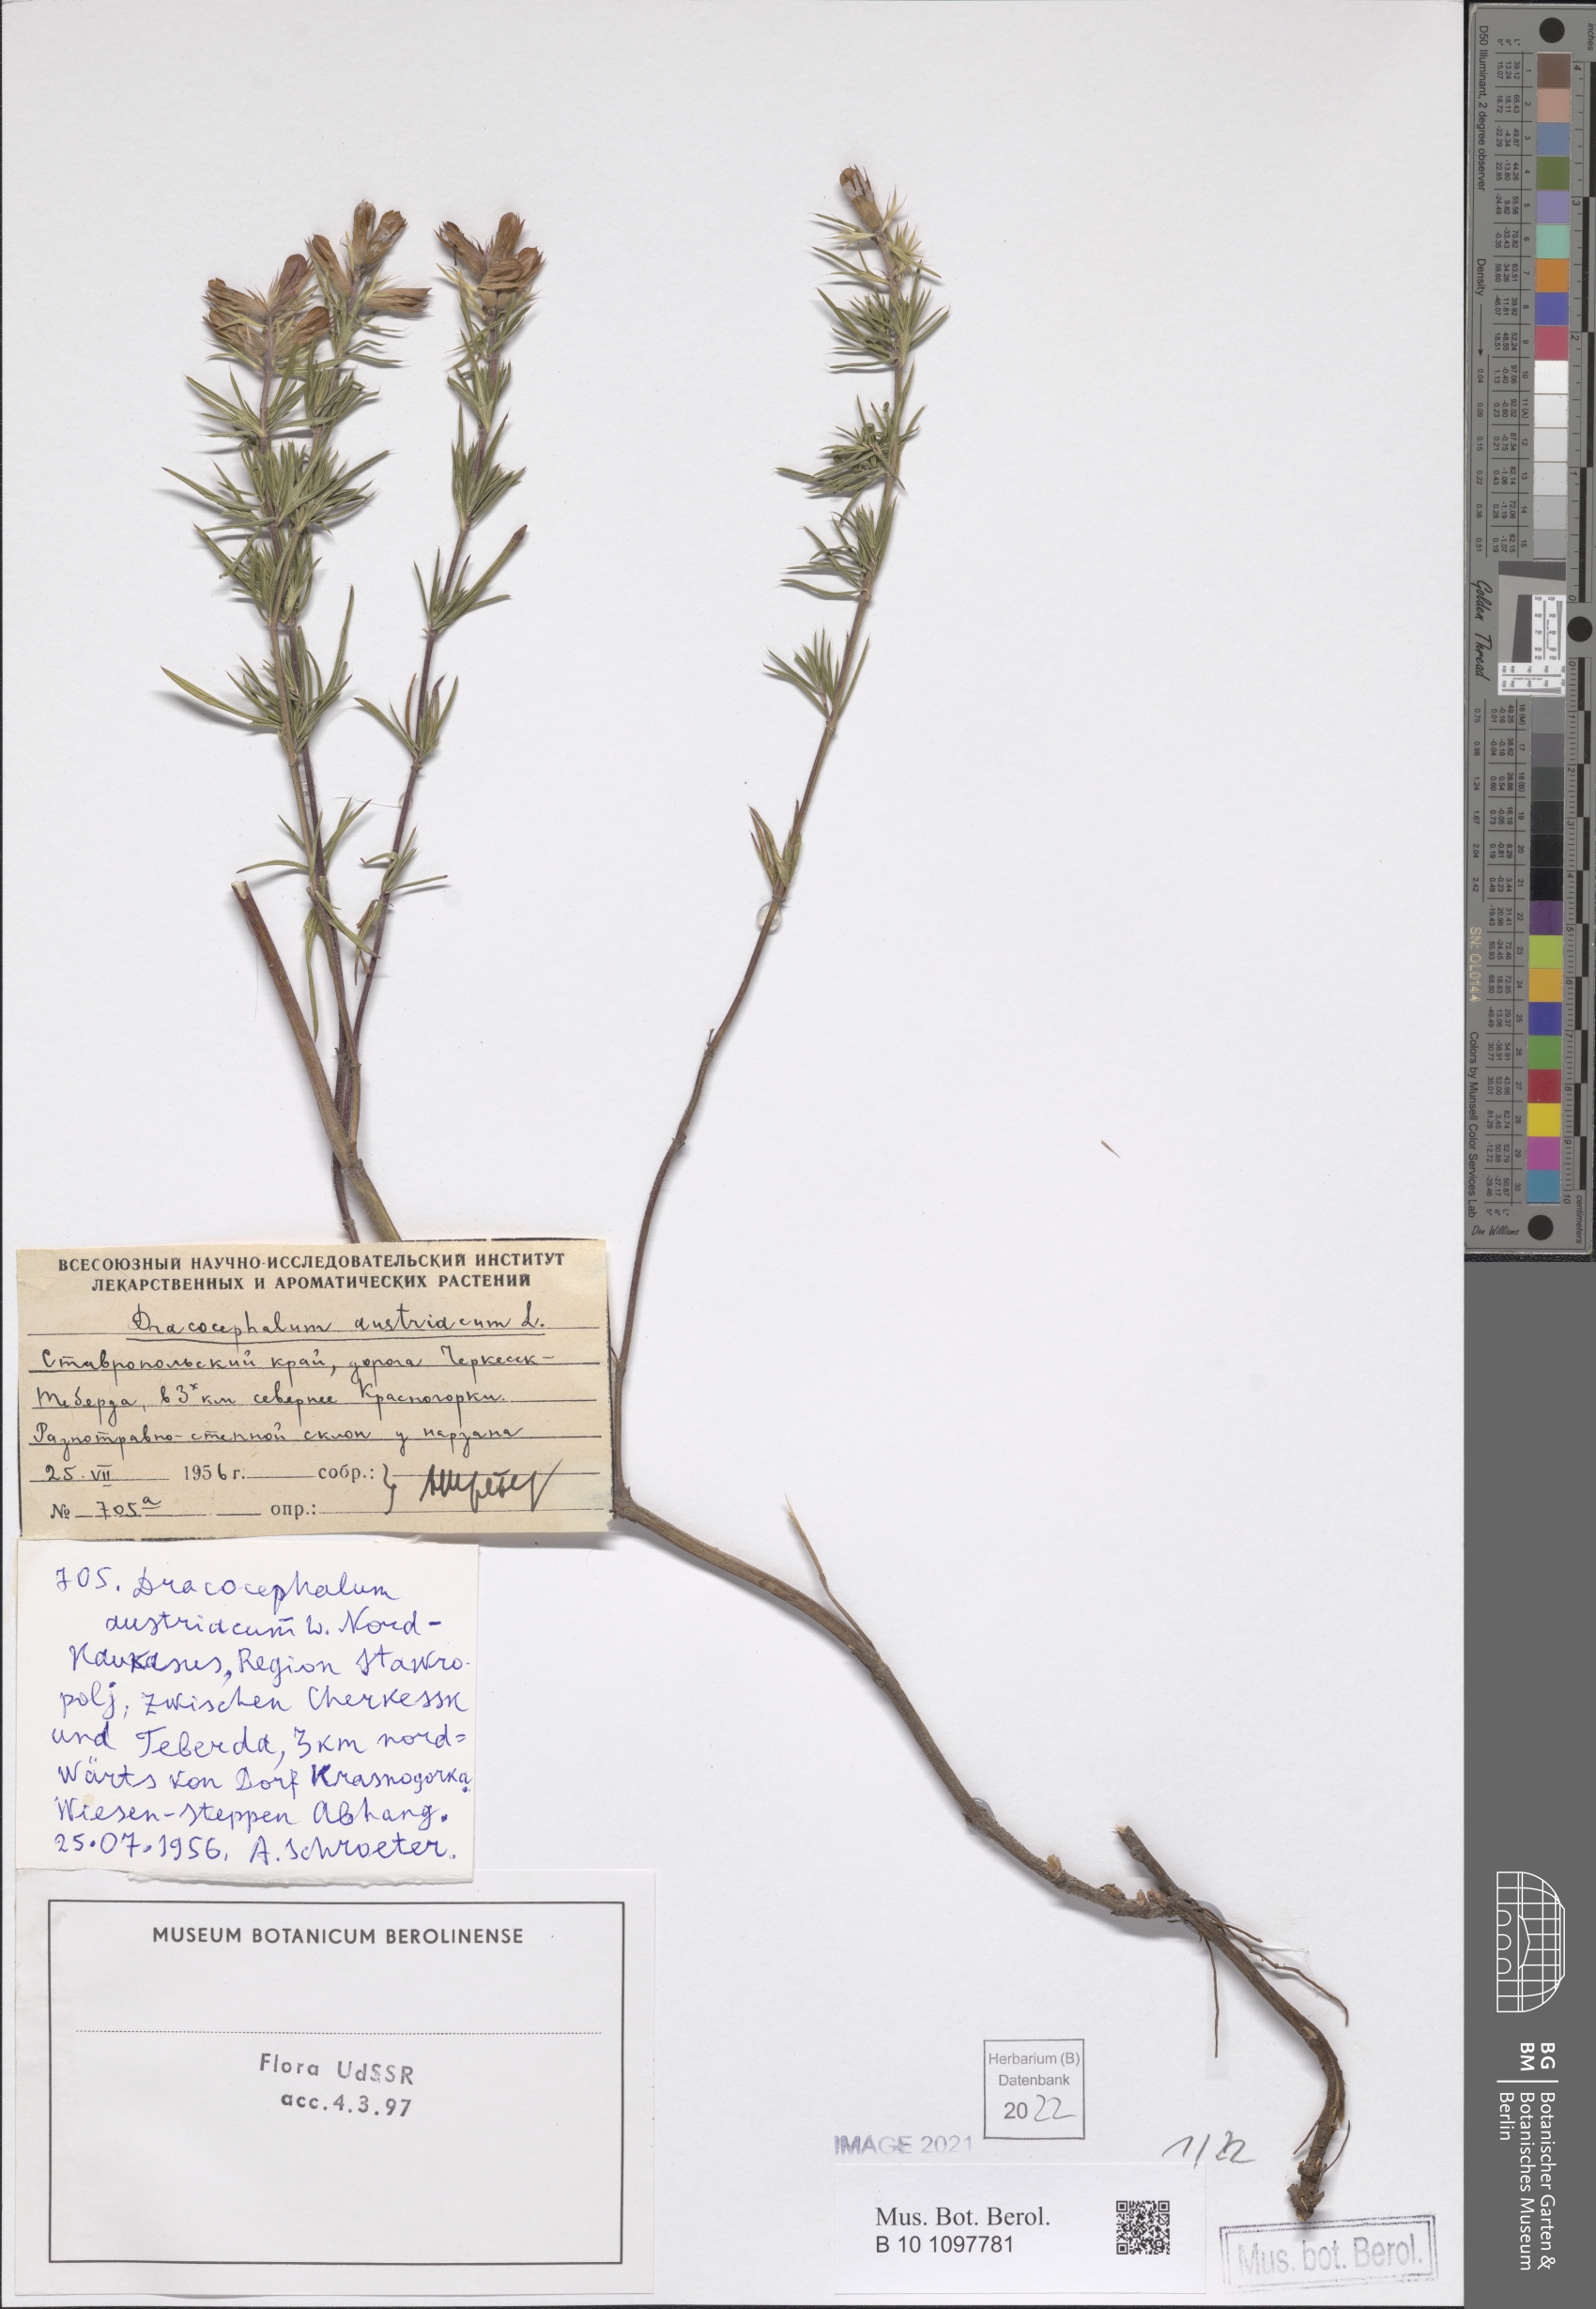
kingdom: Plantae
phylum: Tracheophyta
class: Magnoliopsida
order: Lamiales
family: Lamiaceae
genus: Dracocephalum
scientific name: Dracocephalum austriacum
